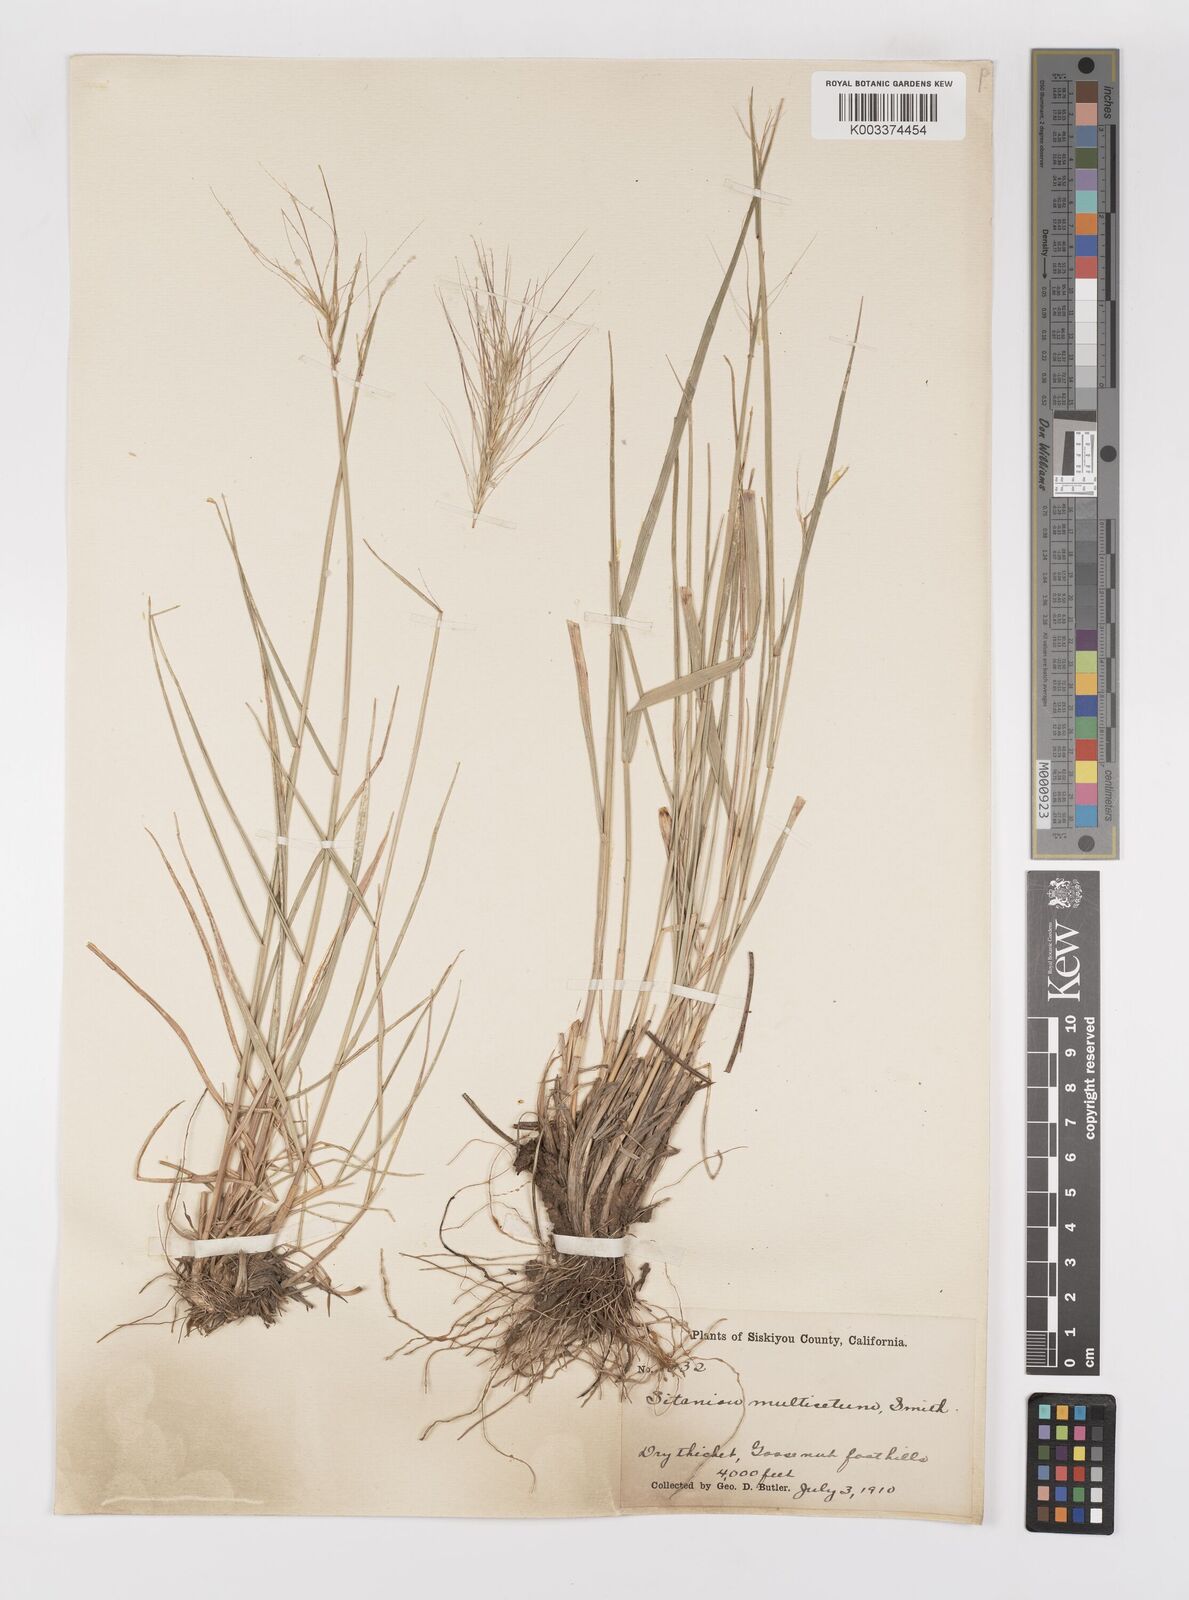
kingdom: Plantae
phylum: Tracheophyta
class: Liliopsida
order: Poales
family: Poaceae
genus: Elymus
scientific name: Elymus multisetus
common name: Big squirreltail
